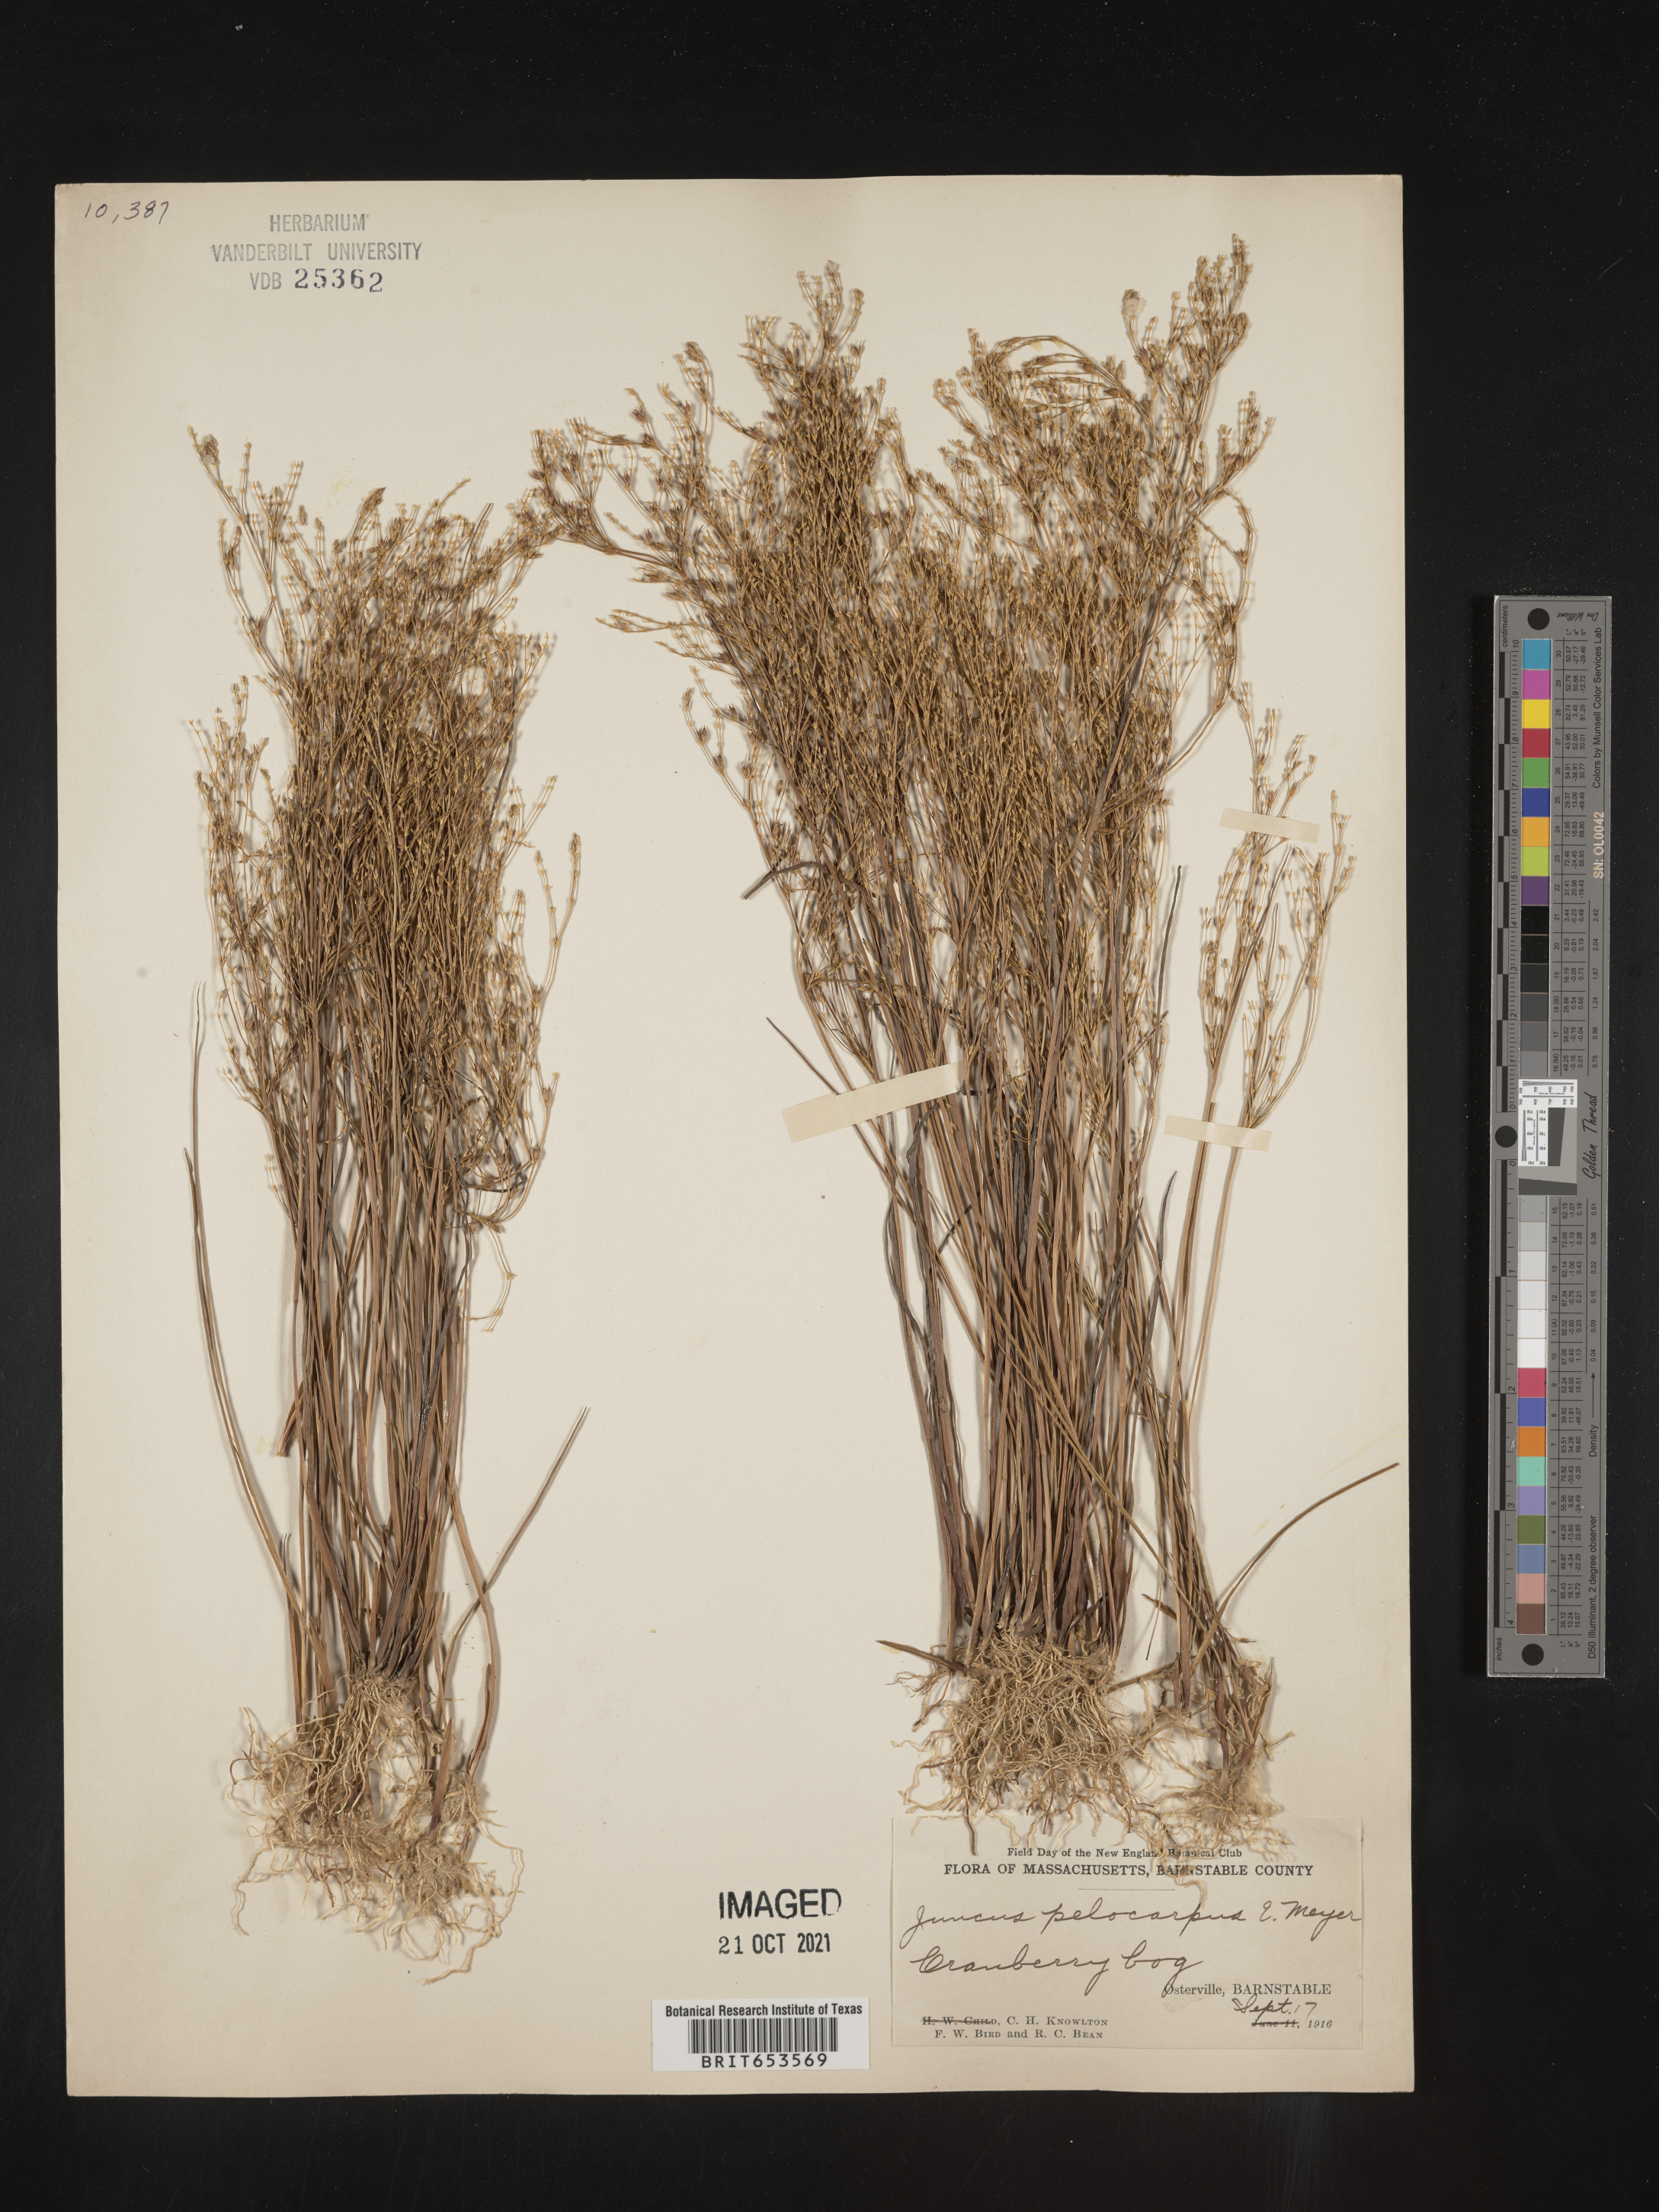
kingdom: Plantae
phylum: Tracheophyta
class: Liliopsida
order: Poales
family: Juncaceae
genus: Juncus
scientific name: Juncus pelocarpus
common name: Brown-fruited rush
